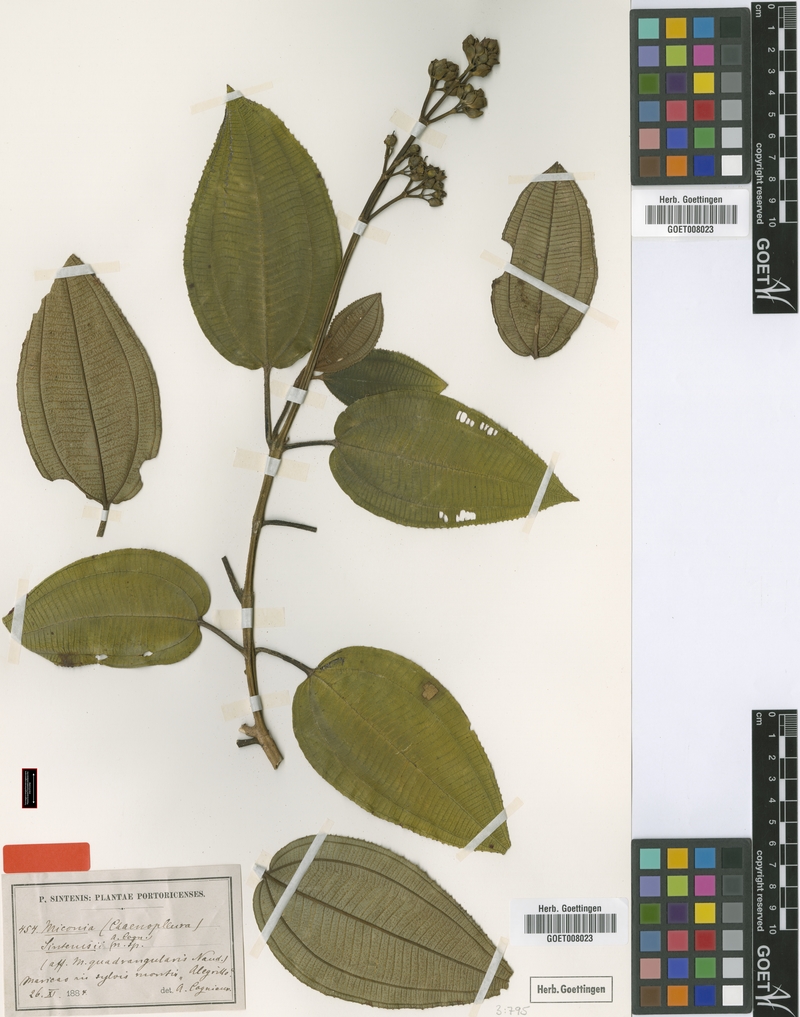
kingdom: Plantae
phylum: Tracheophyta
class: Magnoliopsida
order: Myrtales
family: Melastomataceae
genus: Miconia
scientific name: Miconia sintenisii
